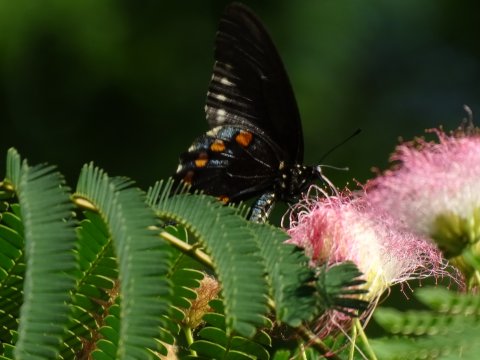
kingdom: Animalia
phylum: Arthropoda
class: Insecta
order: Lepidoptera
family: Papilionidae
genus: Battus
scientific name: Battus philenor
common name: Pipevine Swallowtail
